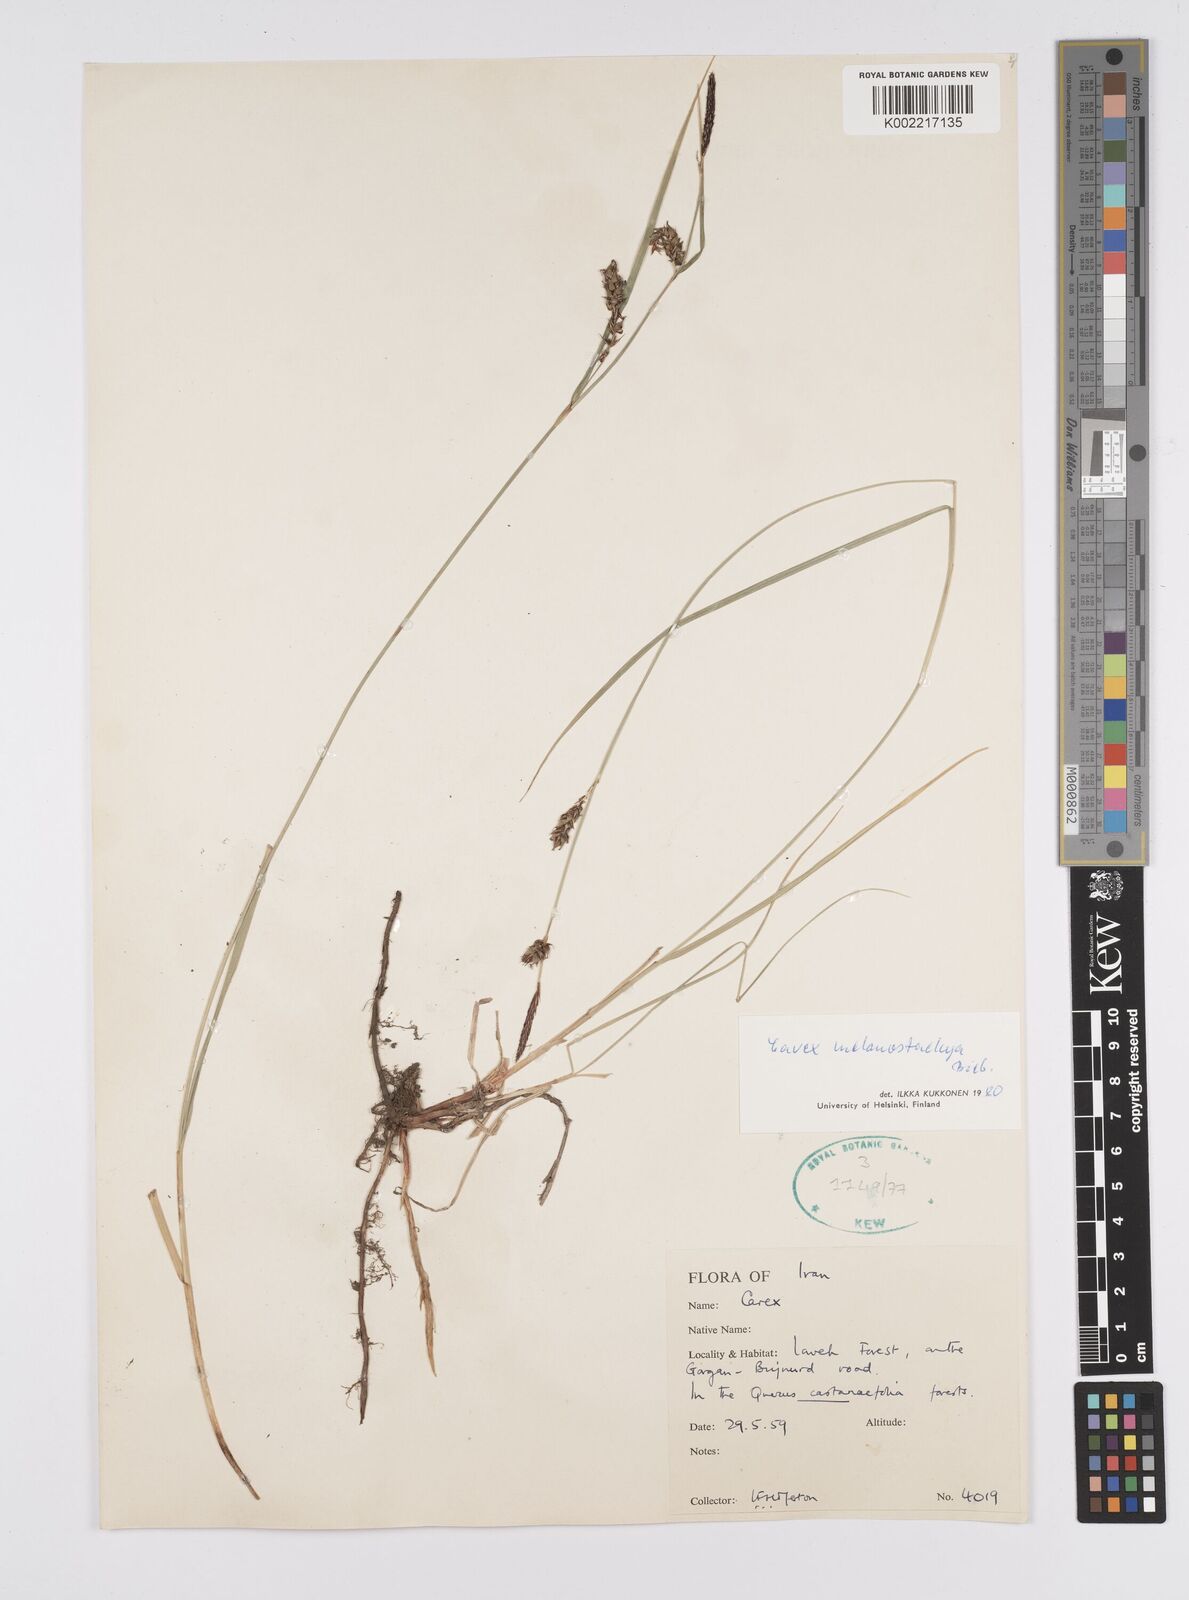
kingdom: Plantae
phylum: Tracheophyta
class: Liliopsida
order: Poales
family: Cyperaceae
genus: Carex
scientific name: Carex melanostachya
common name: Black-spiked sedge
